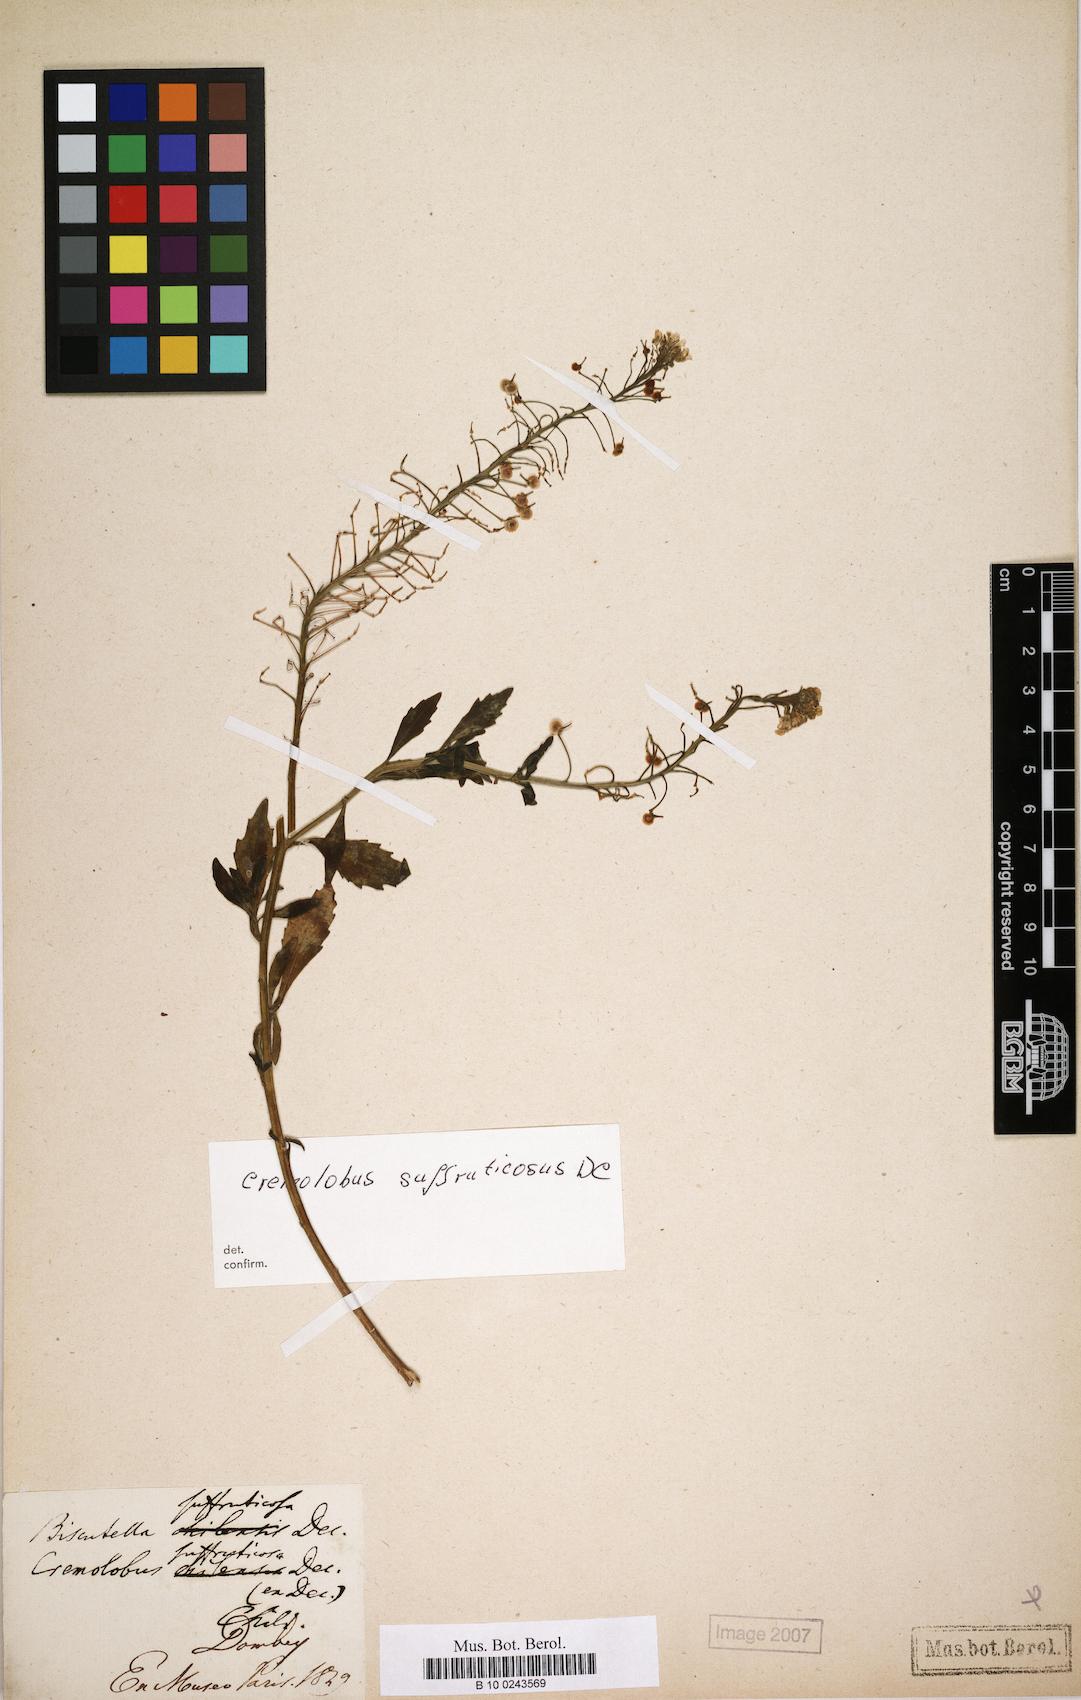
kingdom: Plantae
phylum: Tracheophyta
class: Magnoliopsida
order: Brassicales
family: Brassicaceae
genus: Cremolobus
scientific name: Cremolobus suffruticosus
